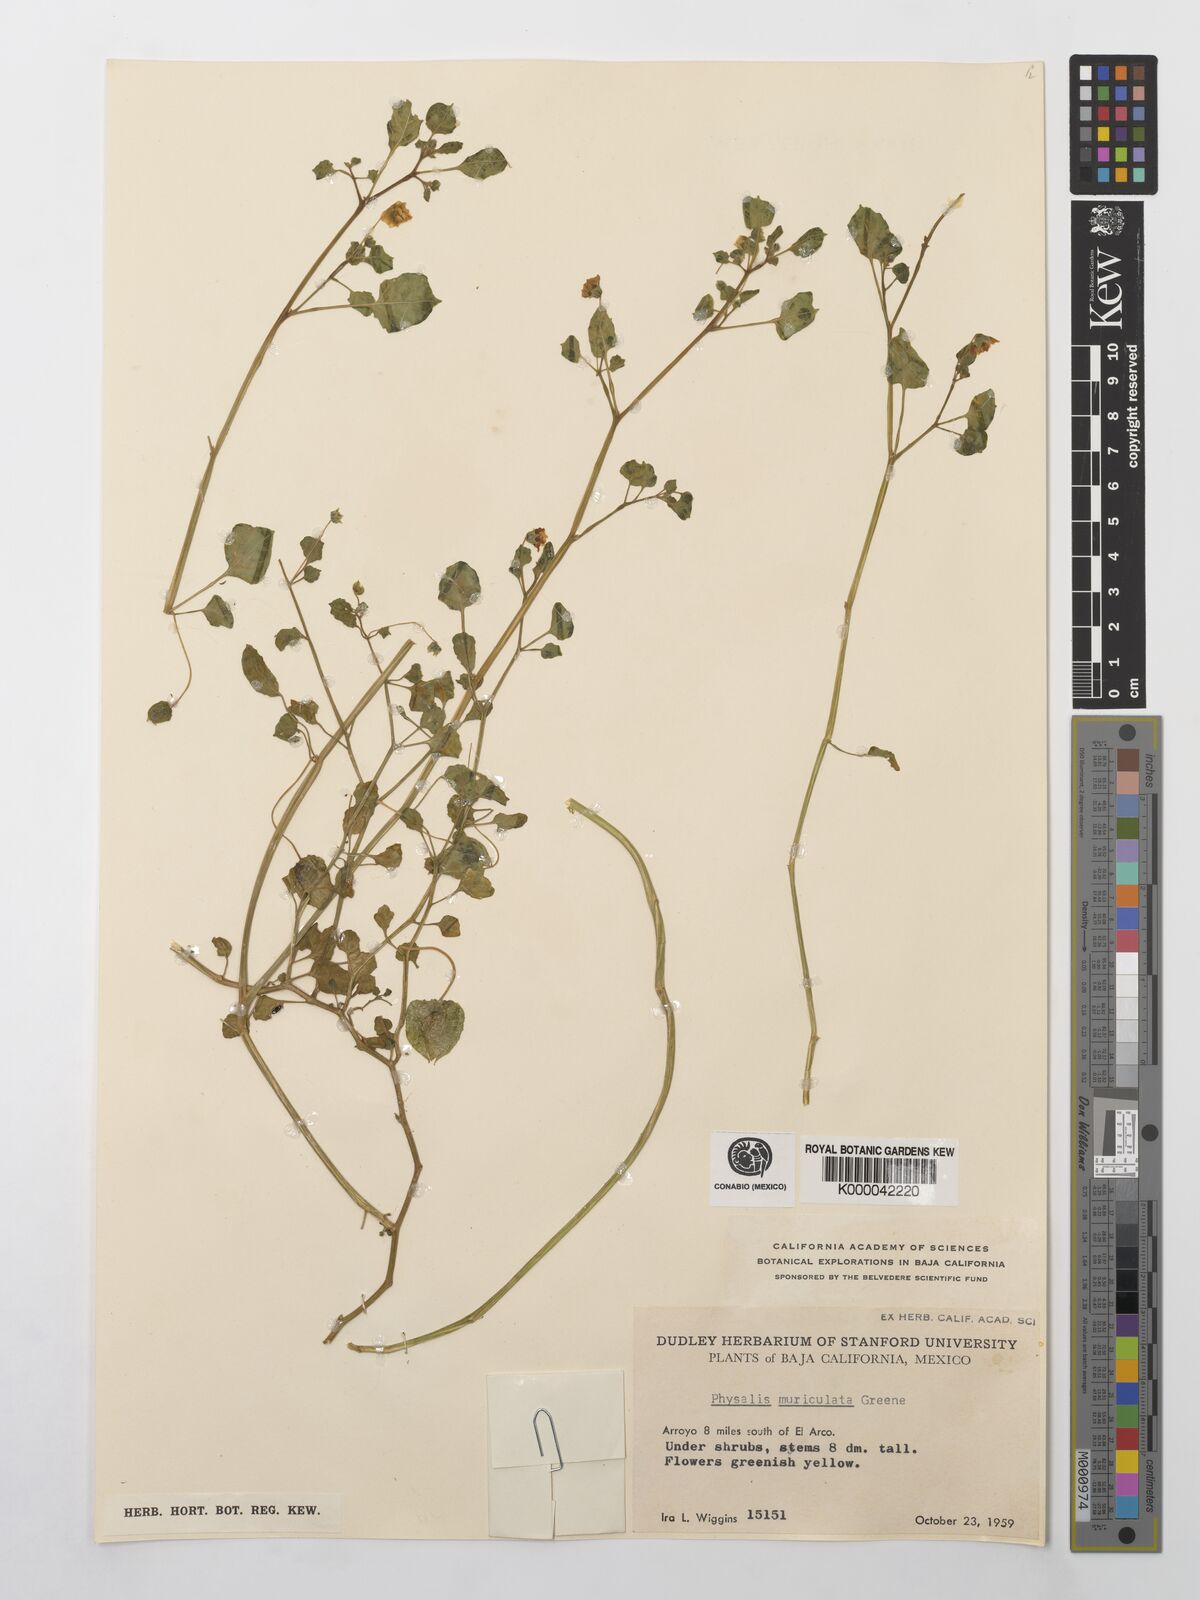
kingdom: Plantae
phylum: Tracheophyta
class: Magnoliopsida
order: Solanales
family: Solanaceae
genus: Physalis
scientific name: Physalis crassifolia
